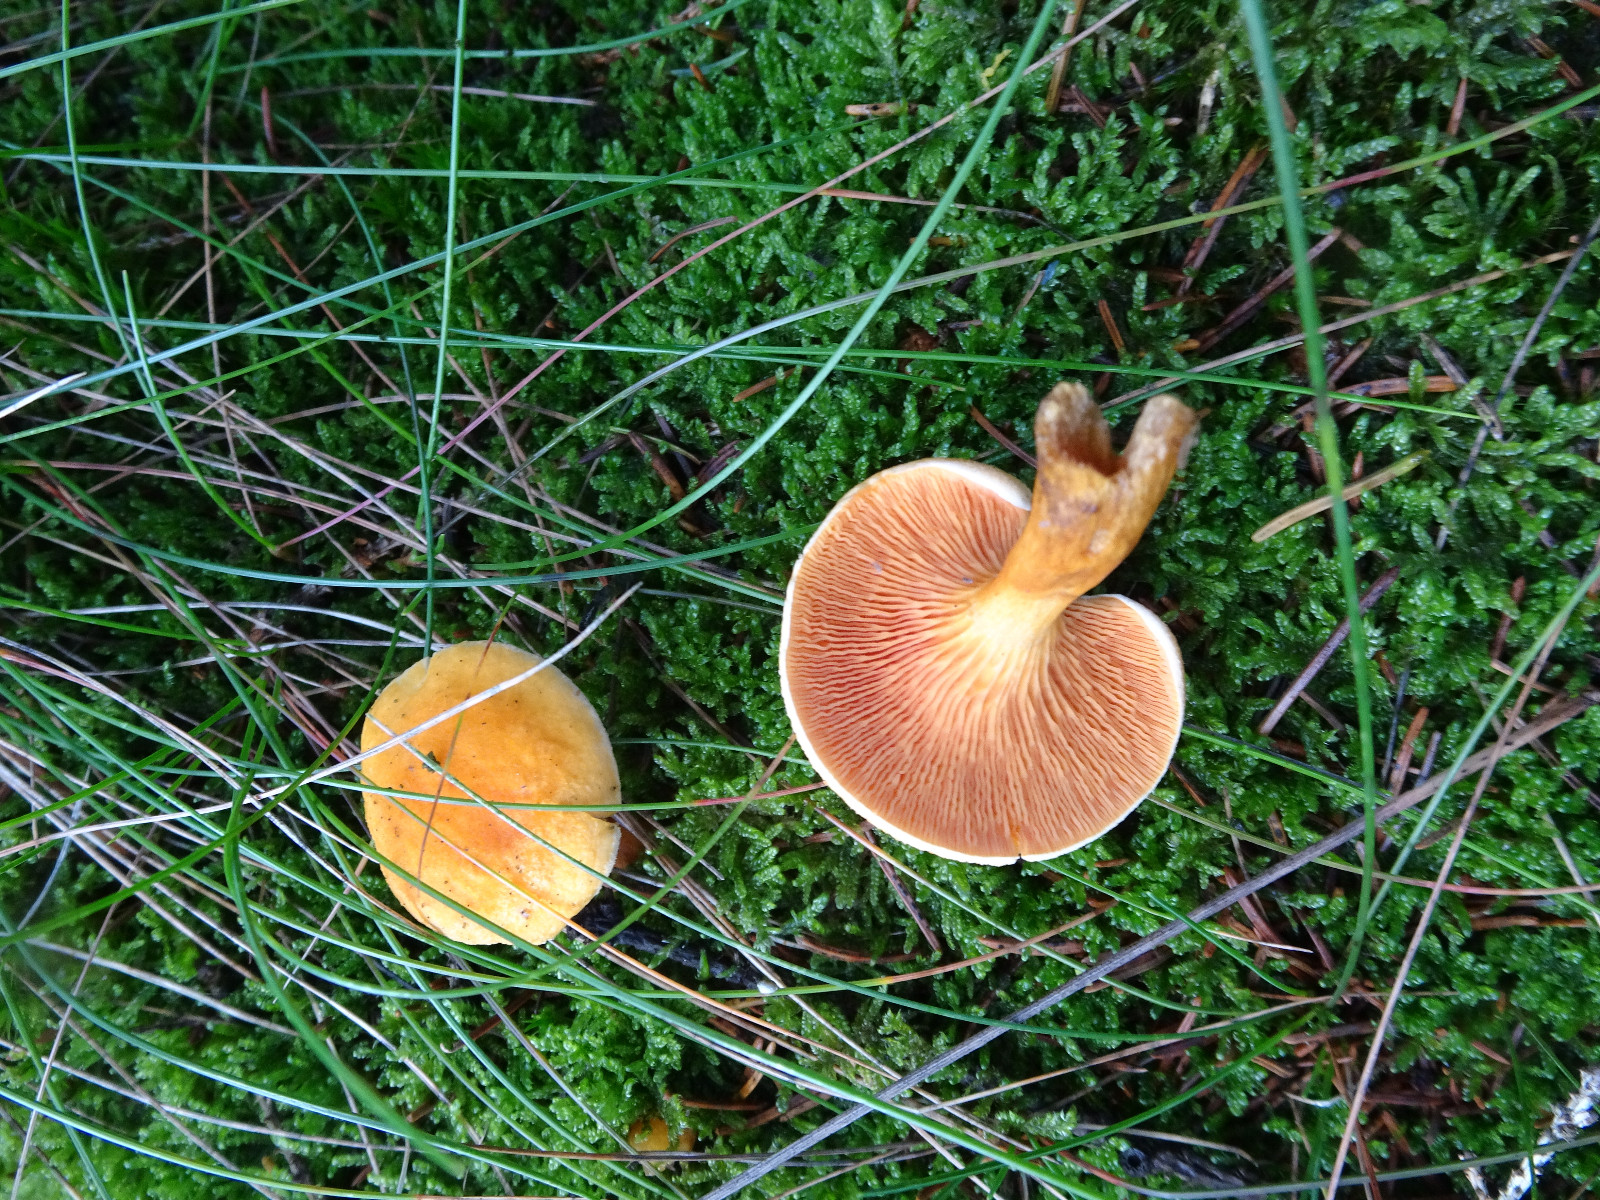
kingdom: Fungi
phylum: Basidiomycota
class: Agaricomycetes
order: Boletales
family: Hygrophoropsidaceae
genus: Hygrophoropsis
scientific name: Hygrophoropsis aurantiaca
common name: almindelig orangekantarel
